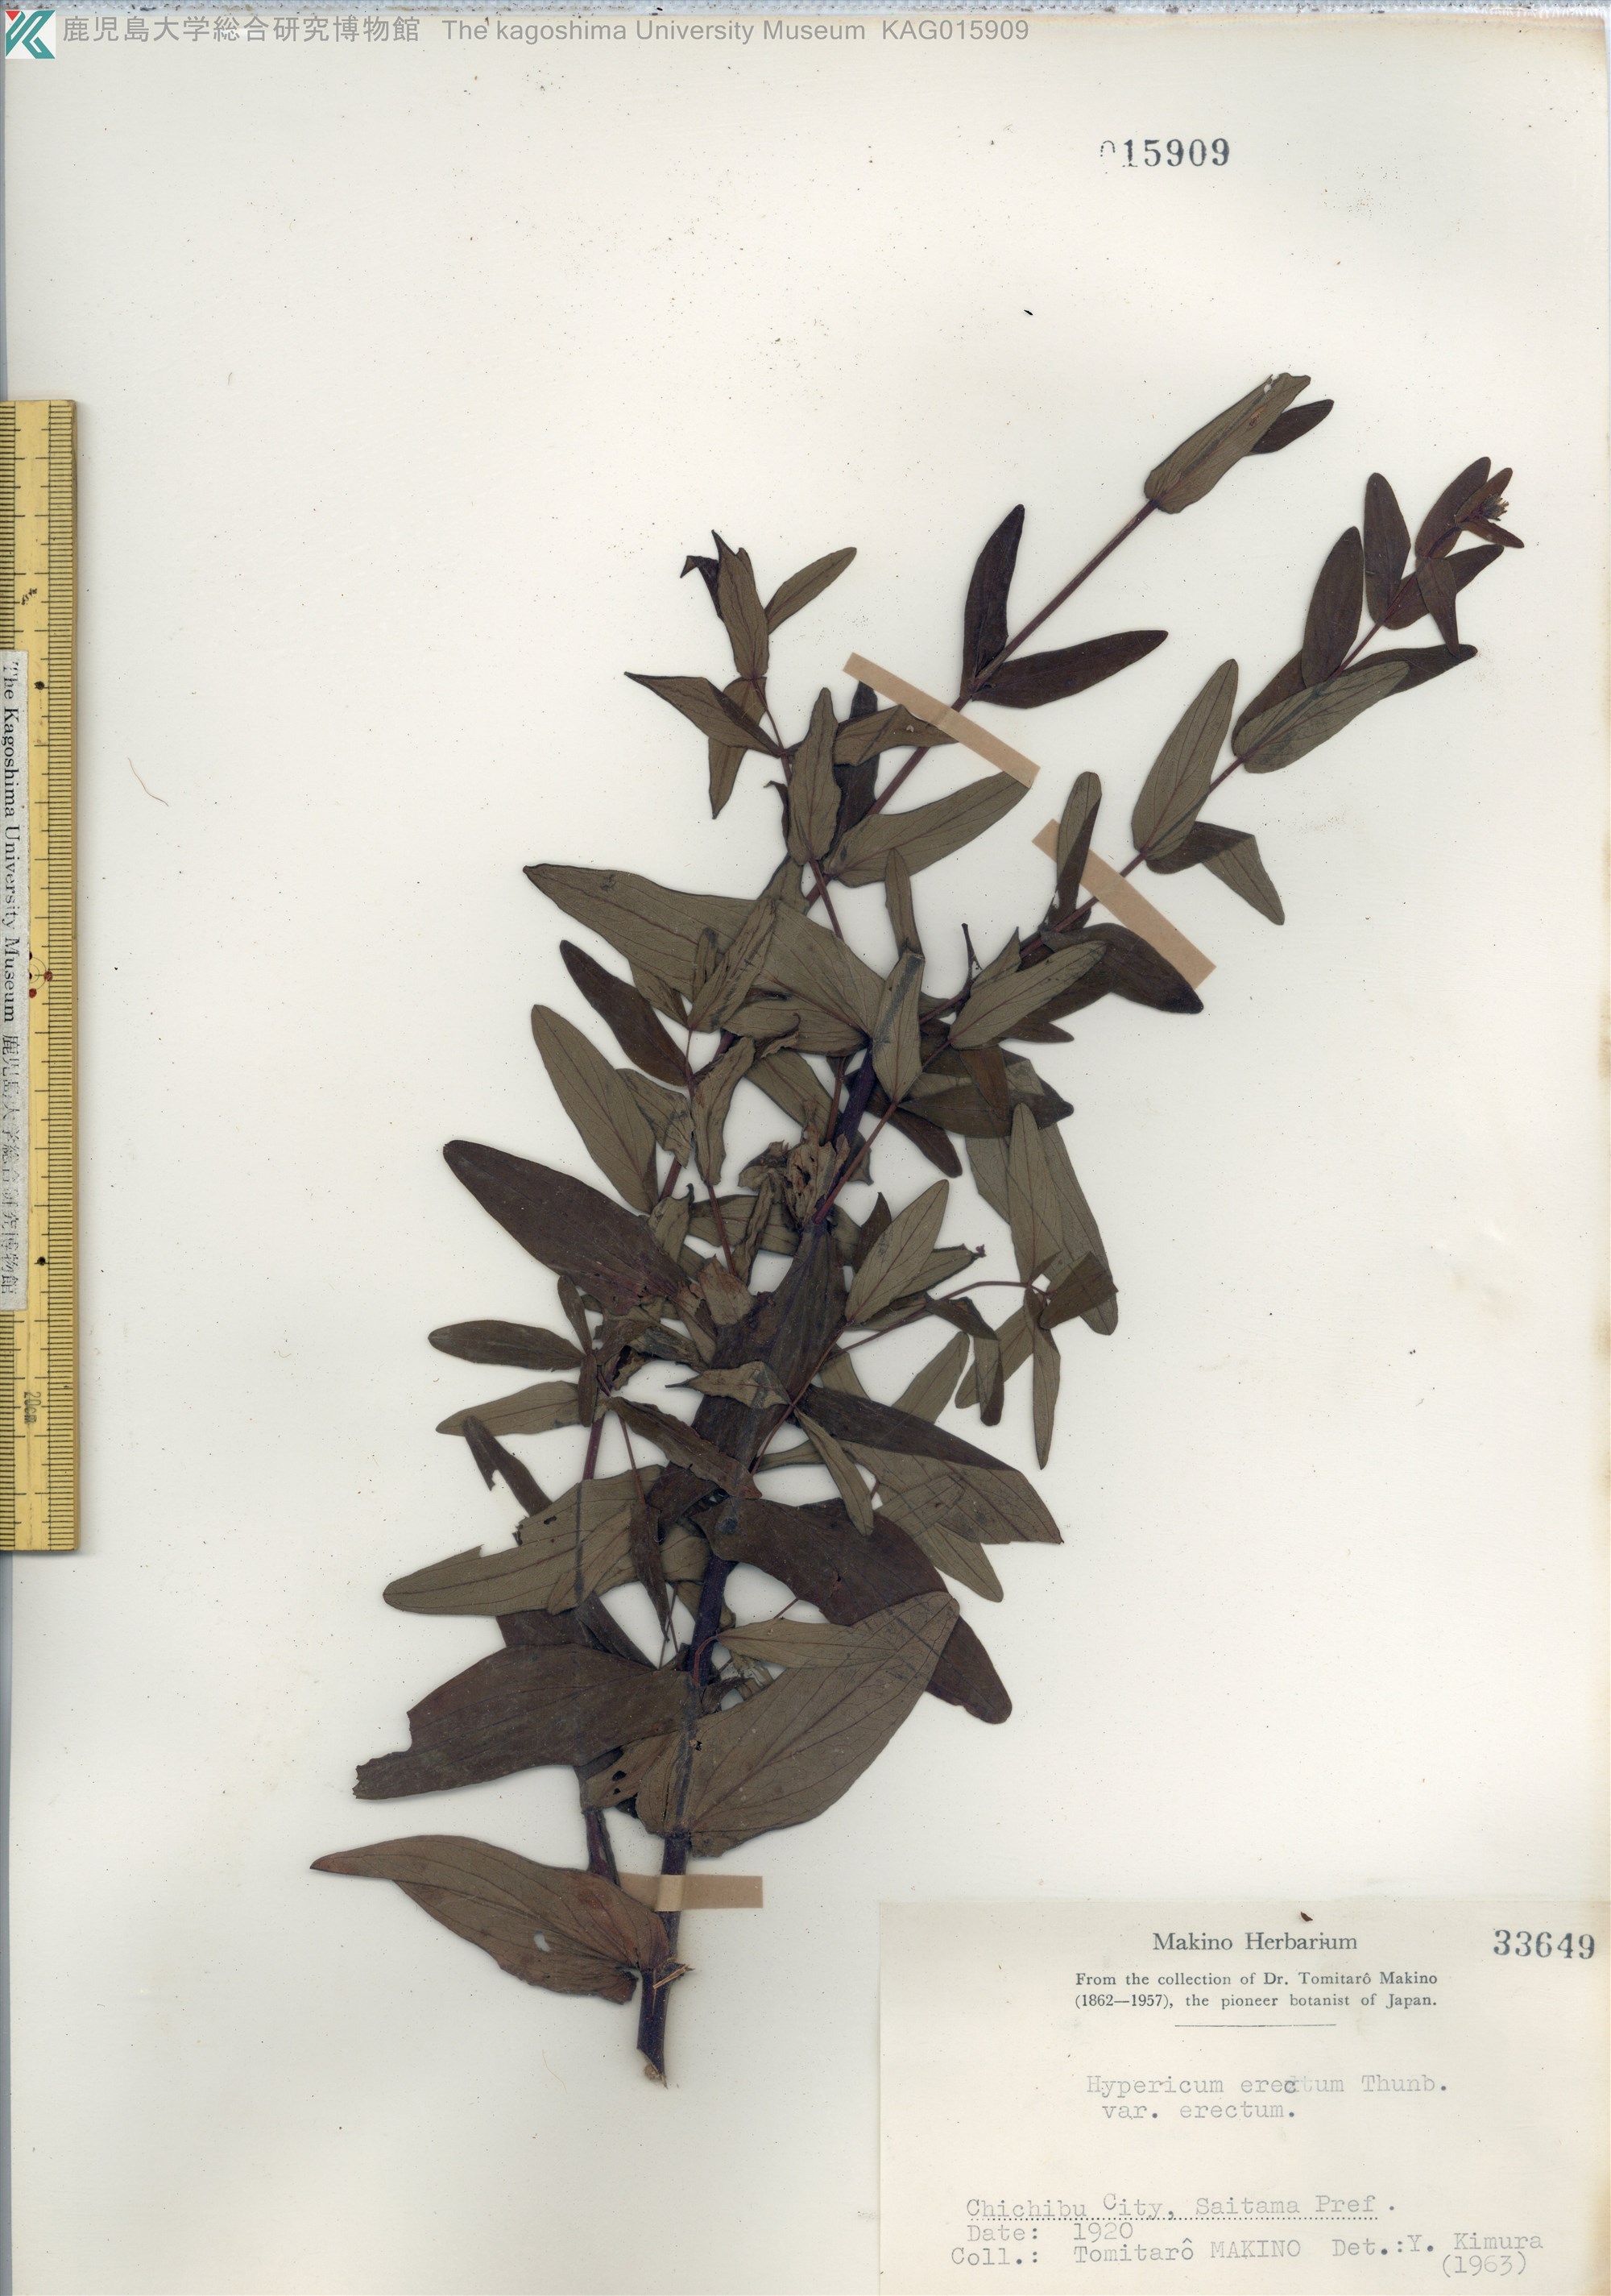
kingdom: Plantae
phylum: Tracheophyta
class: Magnoliopsida
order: Malpighiales
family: Hypericaceae
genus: Hypericum
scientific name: Hypericum ascyron
